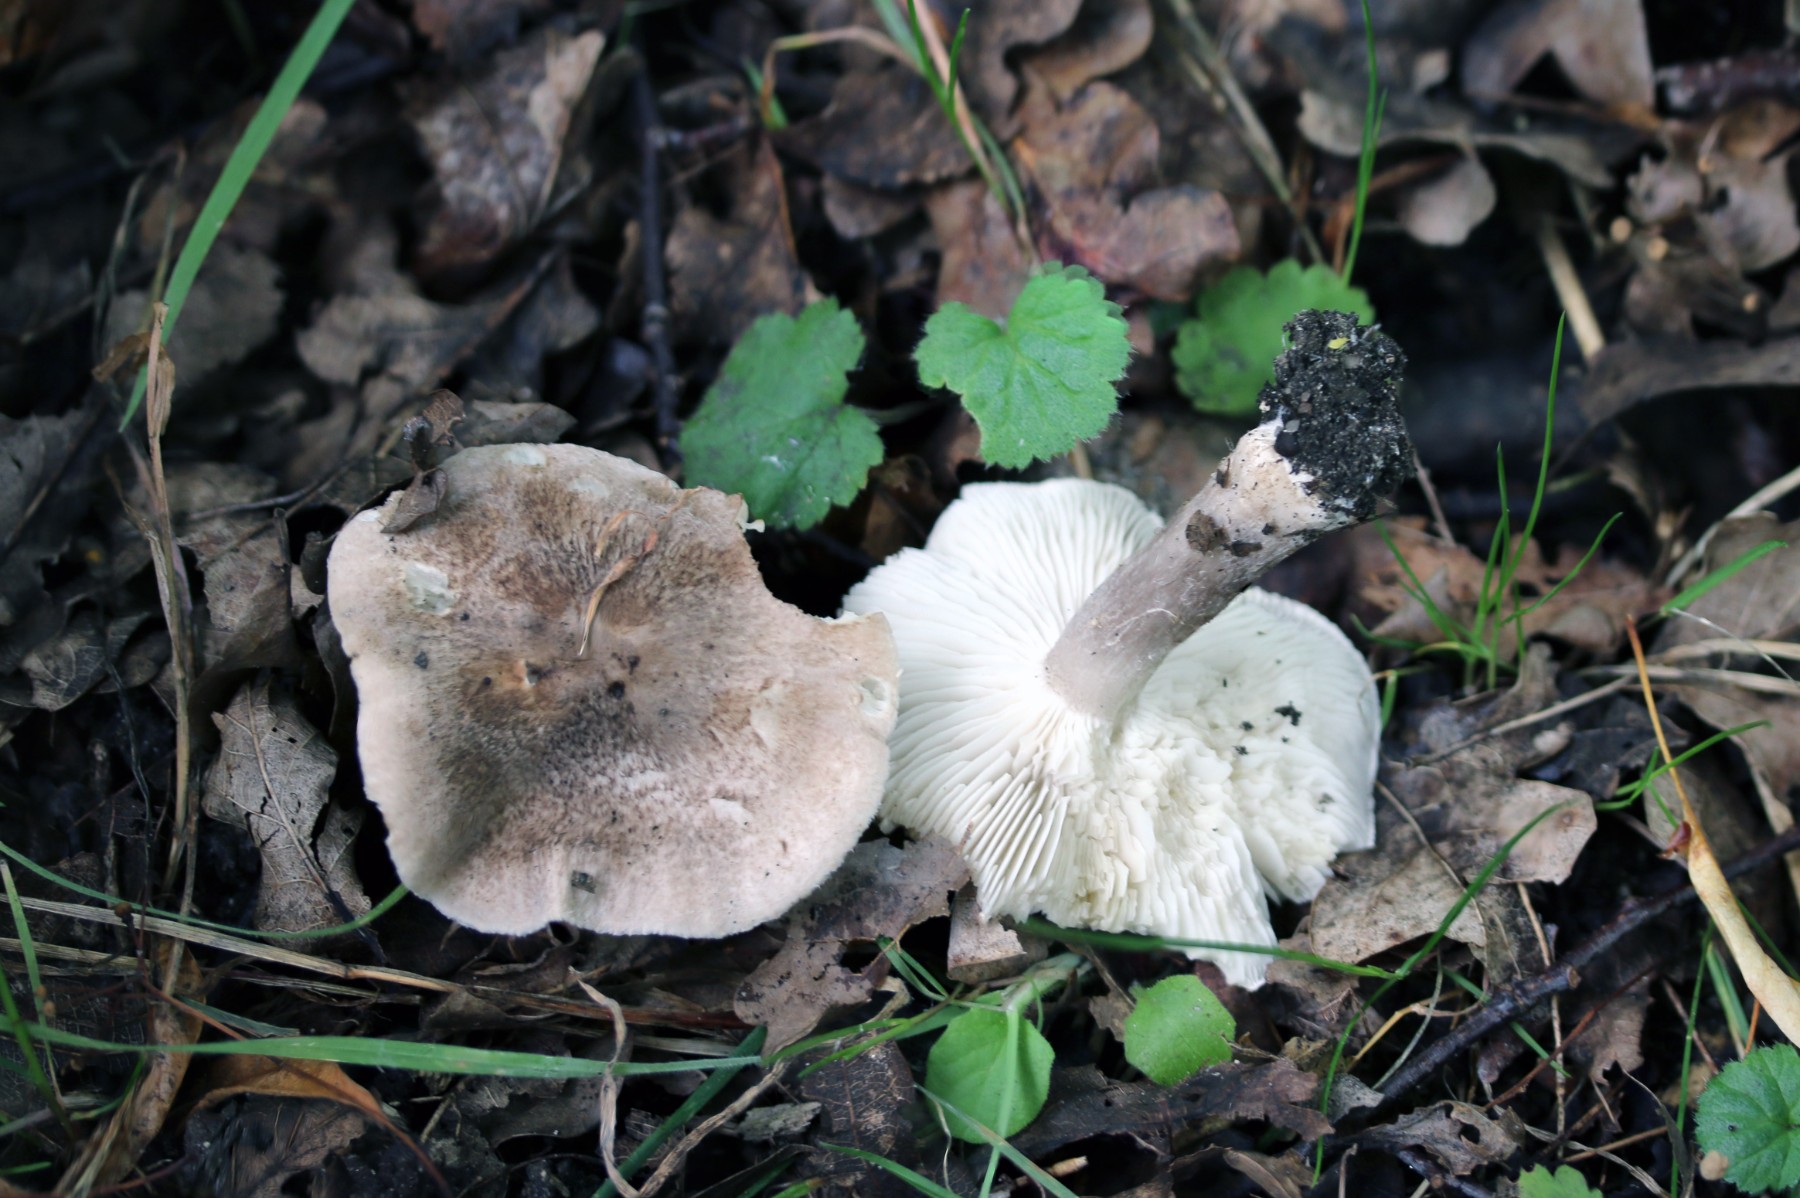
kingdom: Fungi
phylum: Basidiomycota
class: Agaricomycetes
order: Agaricales
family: Tricholomataceae
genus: Tricholoma
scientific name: Tricholoma scalpturatum
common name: gulplettet ridderhat
